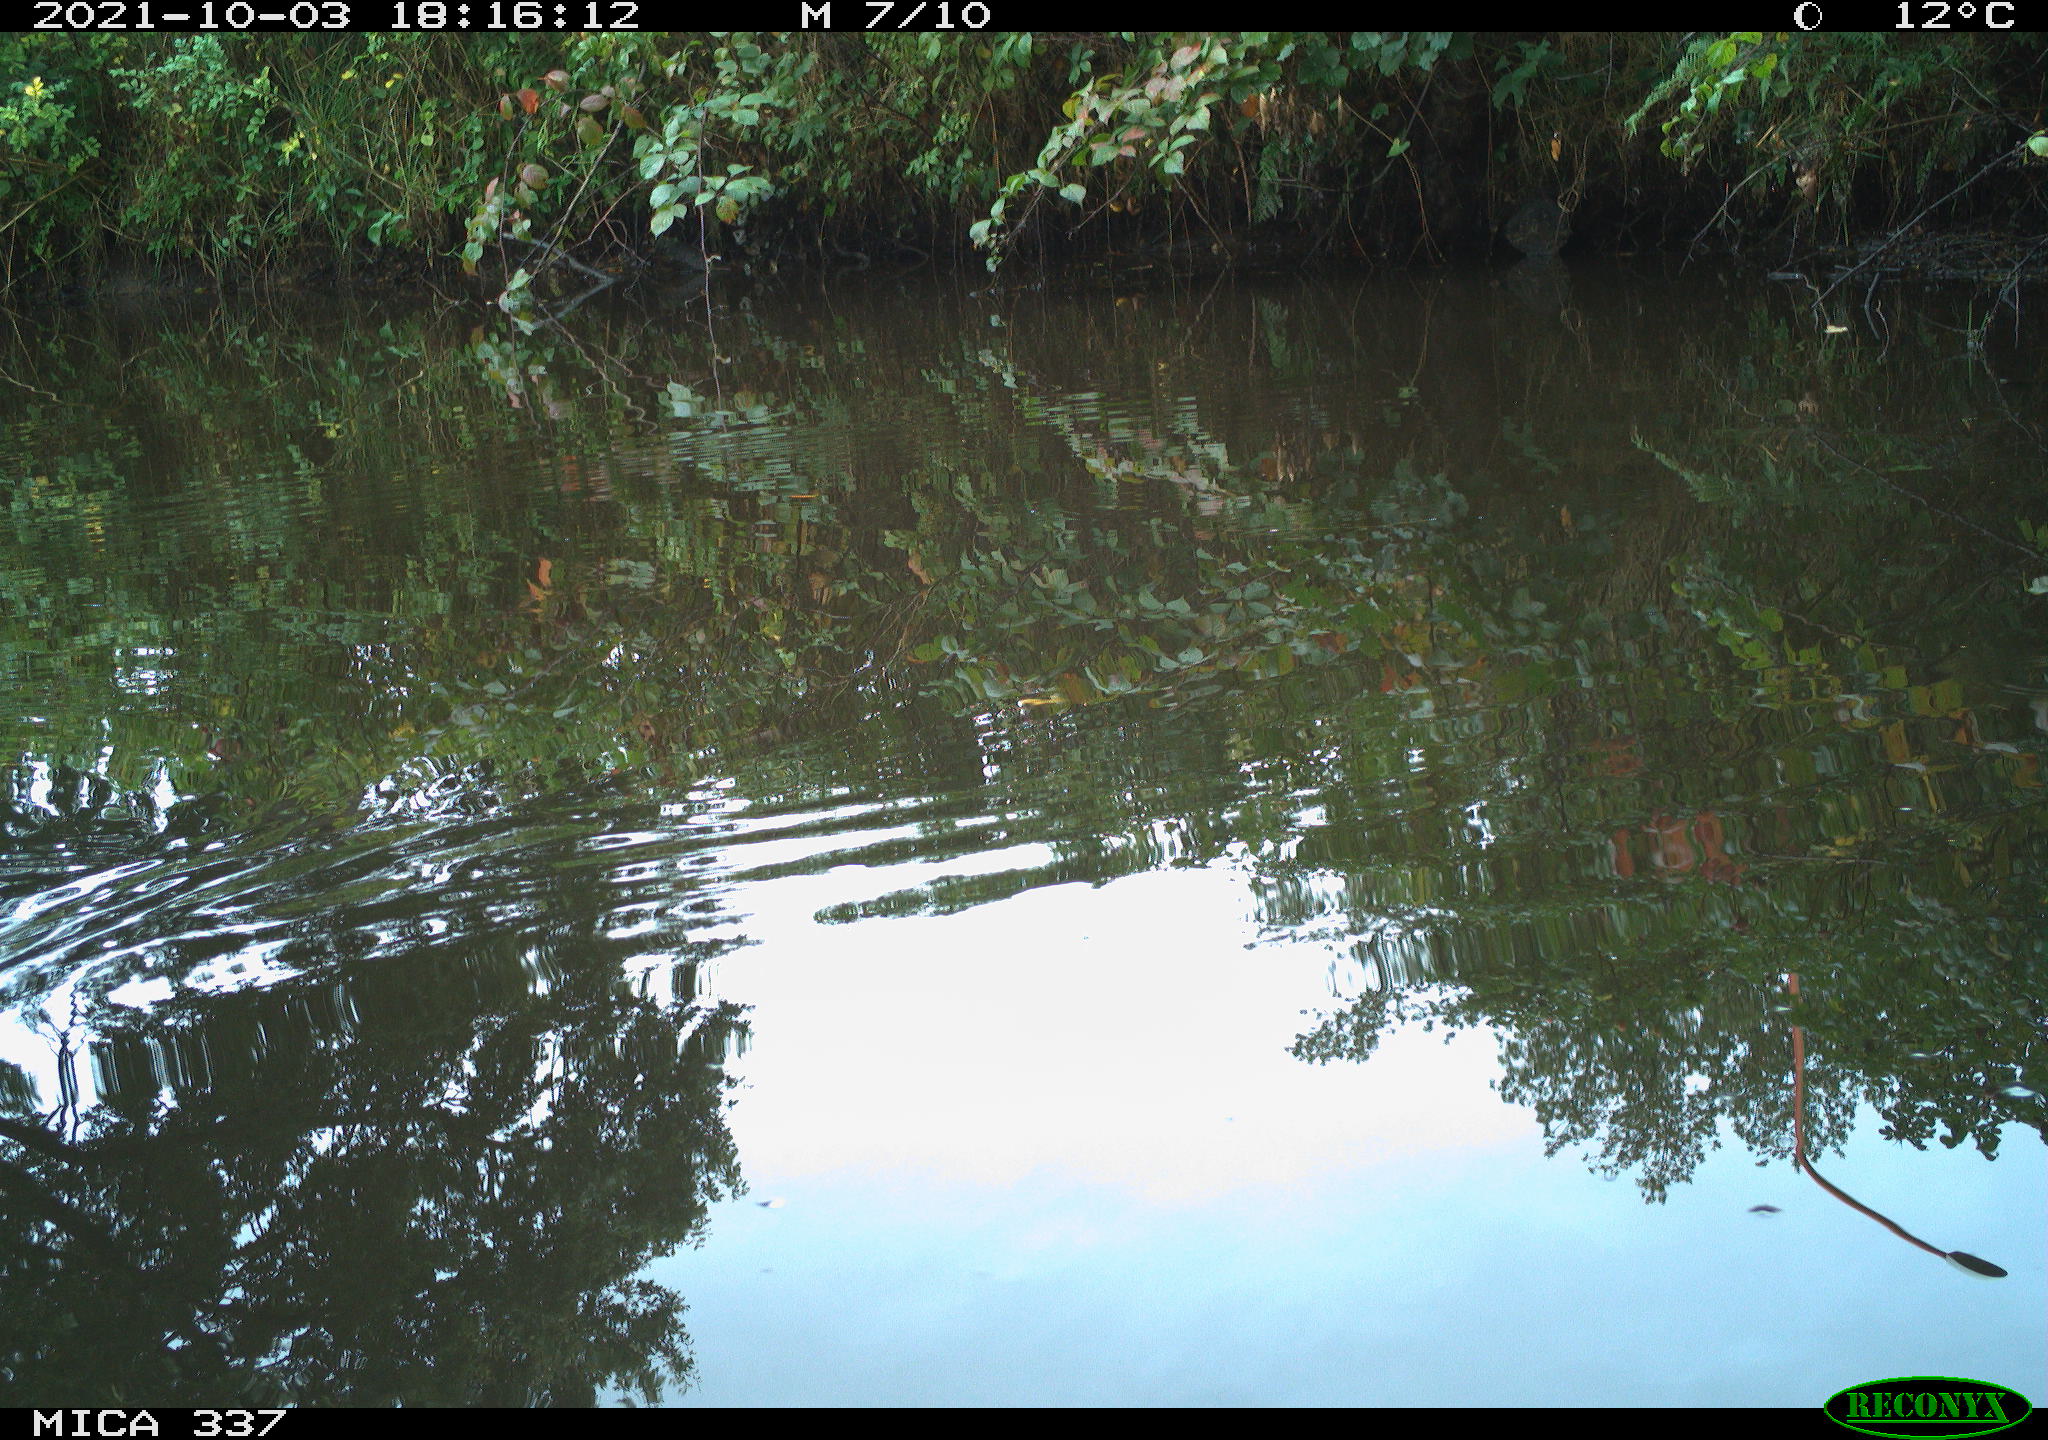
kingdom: Animalia
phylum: Chordata
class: Aves
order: Gruiformes
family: Rallidae
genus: Gallinula
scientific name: Gallinula chloropus
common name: Common moorhen
